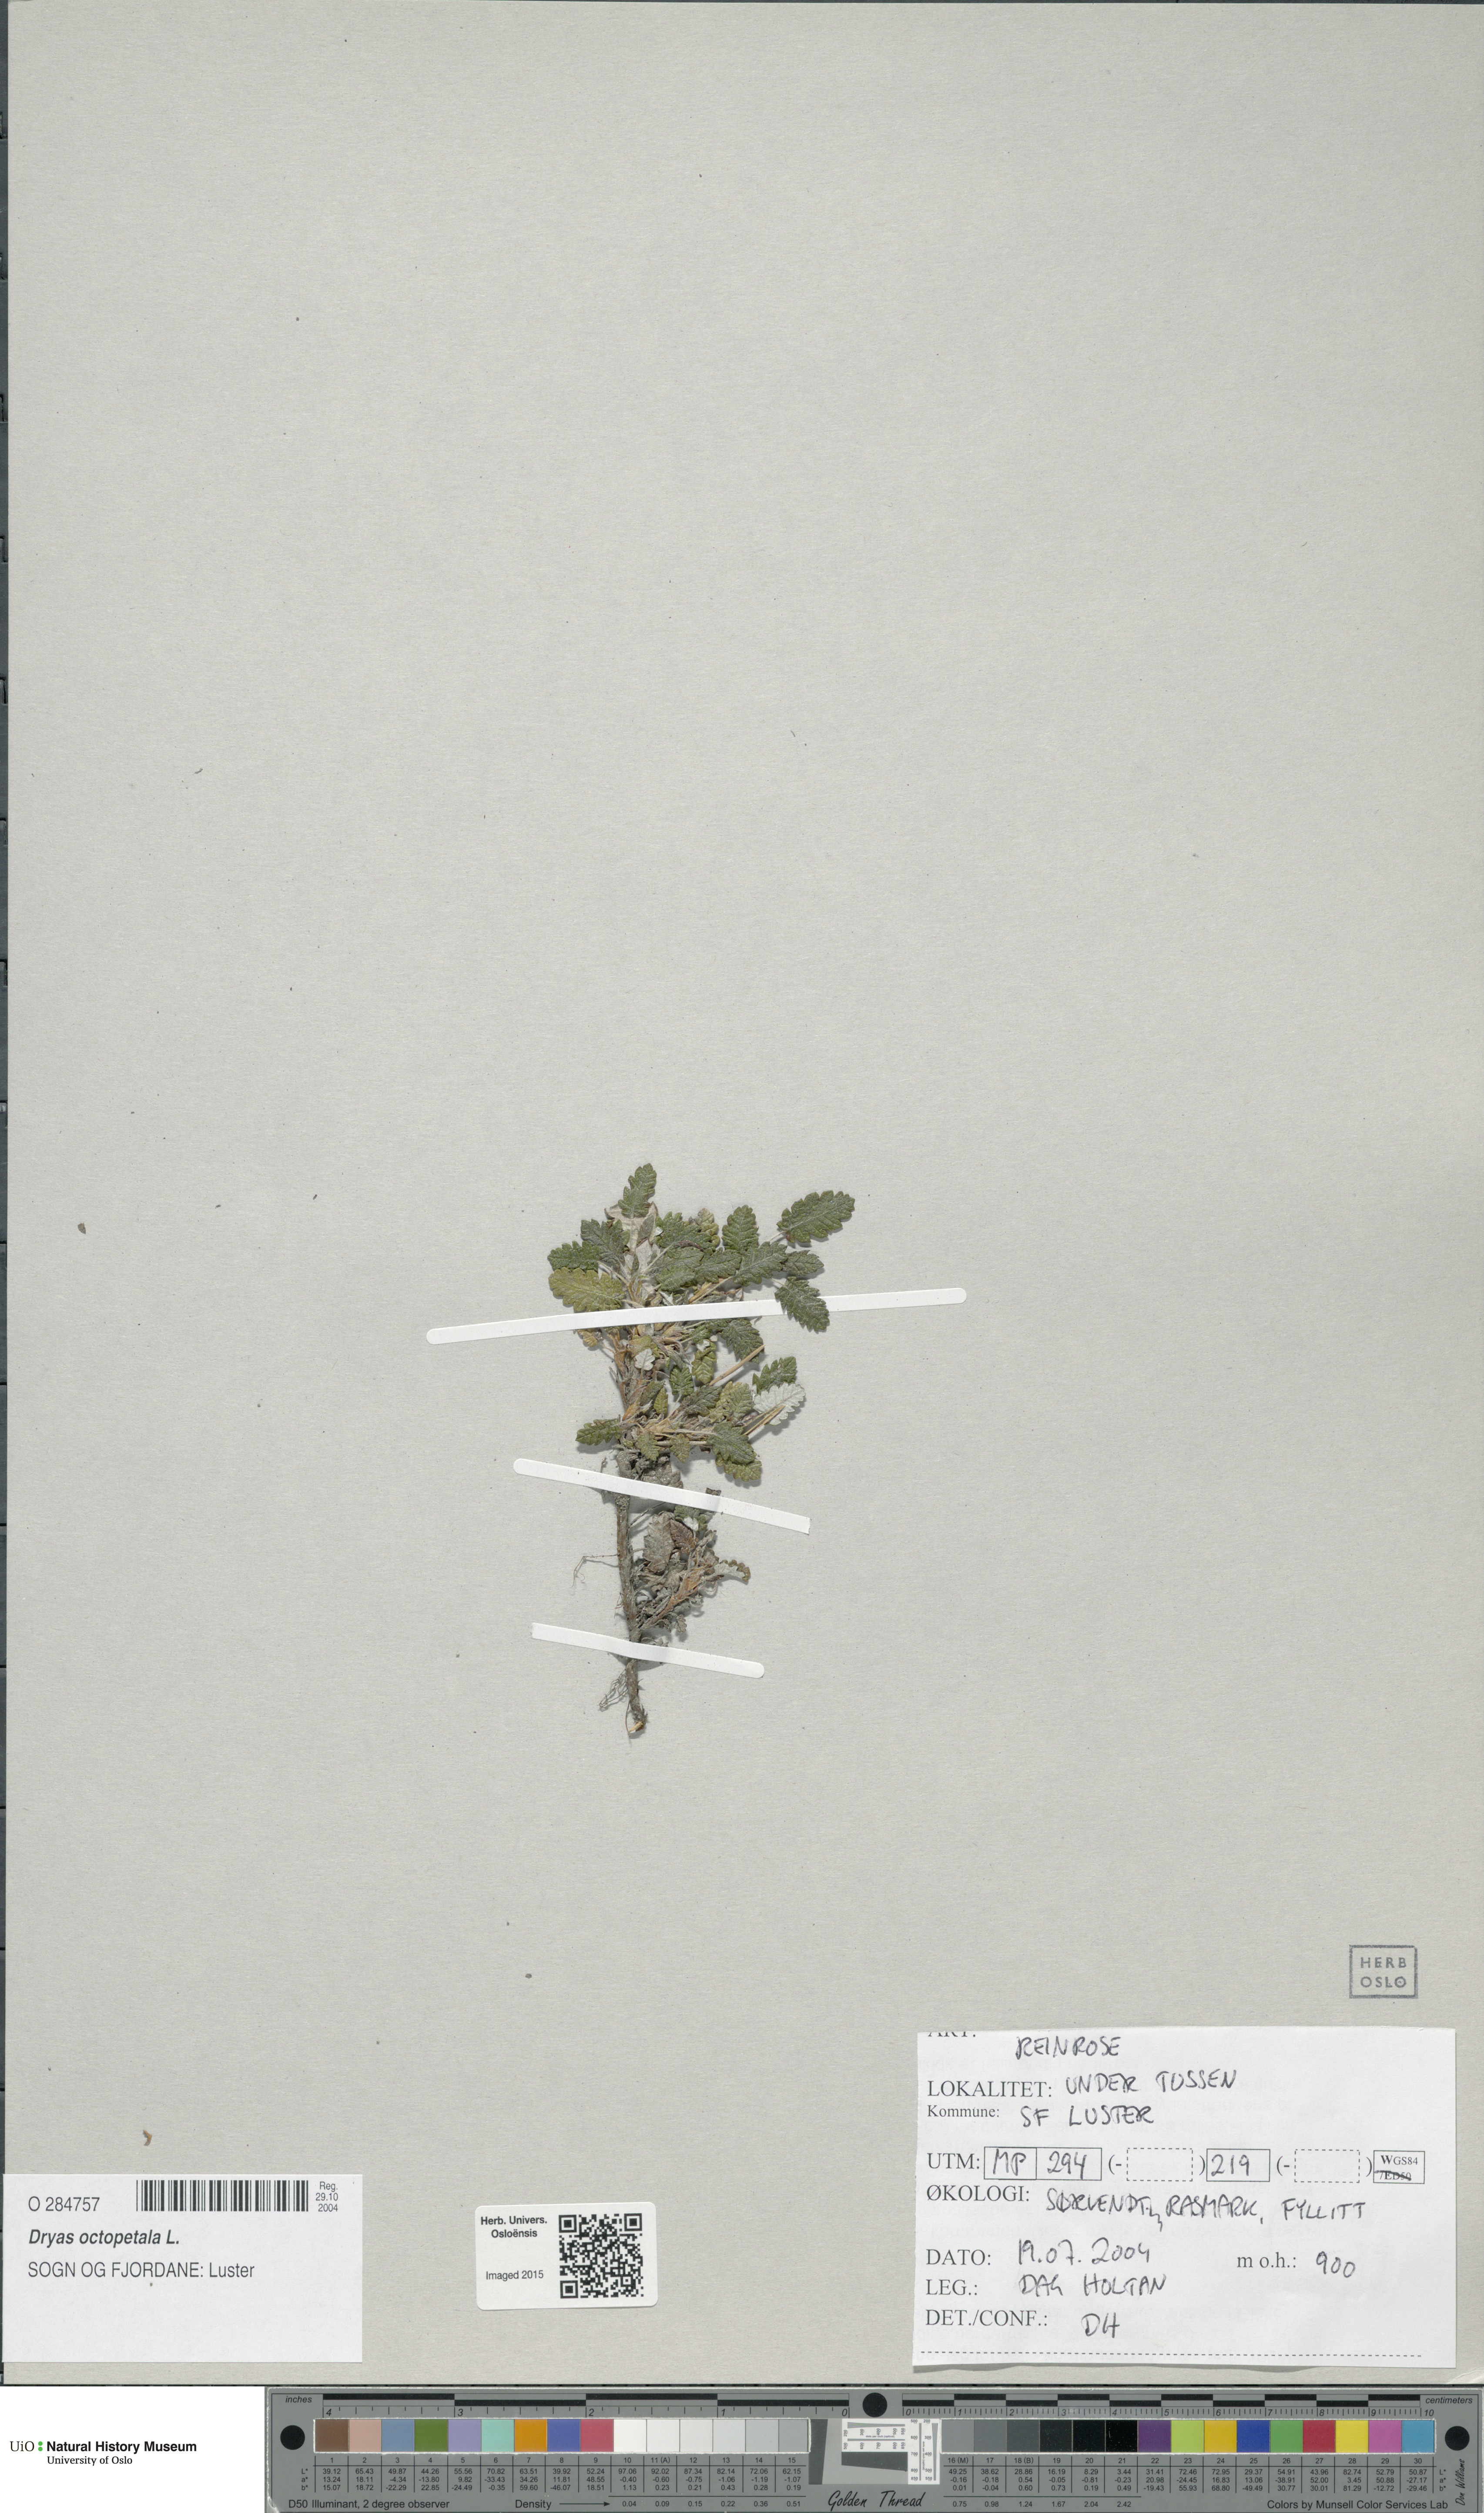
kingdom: Plantae
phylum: Tracheophyta
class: Magnoliopsida
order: Rosales
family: Rosaceae
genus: Dryas
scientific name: Dryas octopetala
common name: Eight-petal mountain-avens
